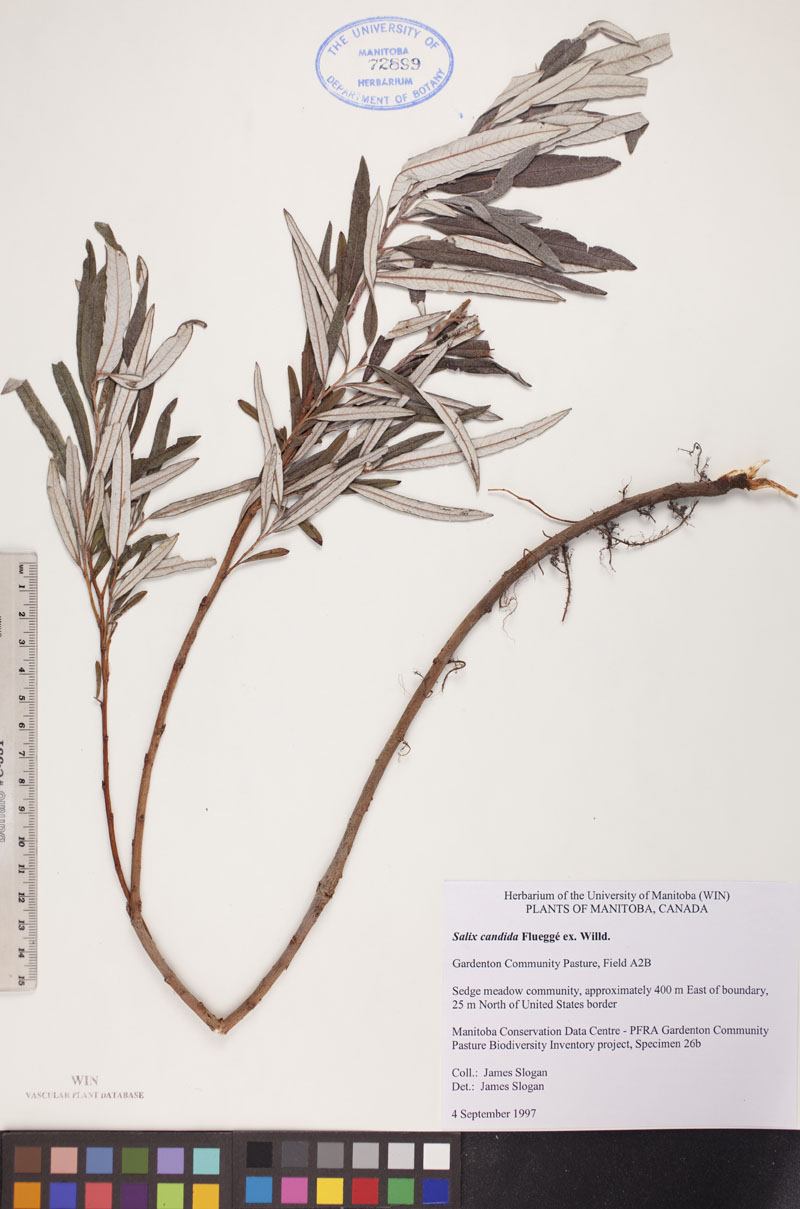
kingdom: Plantae
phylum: Tracheophyta
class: Magnoliopsida
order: Malpighiales
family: Salicaceae
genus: Salix
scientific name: Salix candida
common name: Hoary willow
